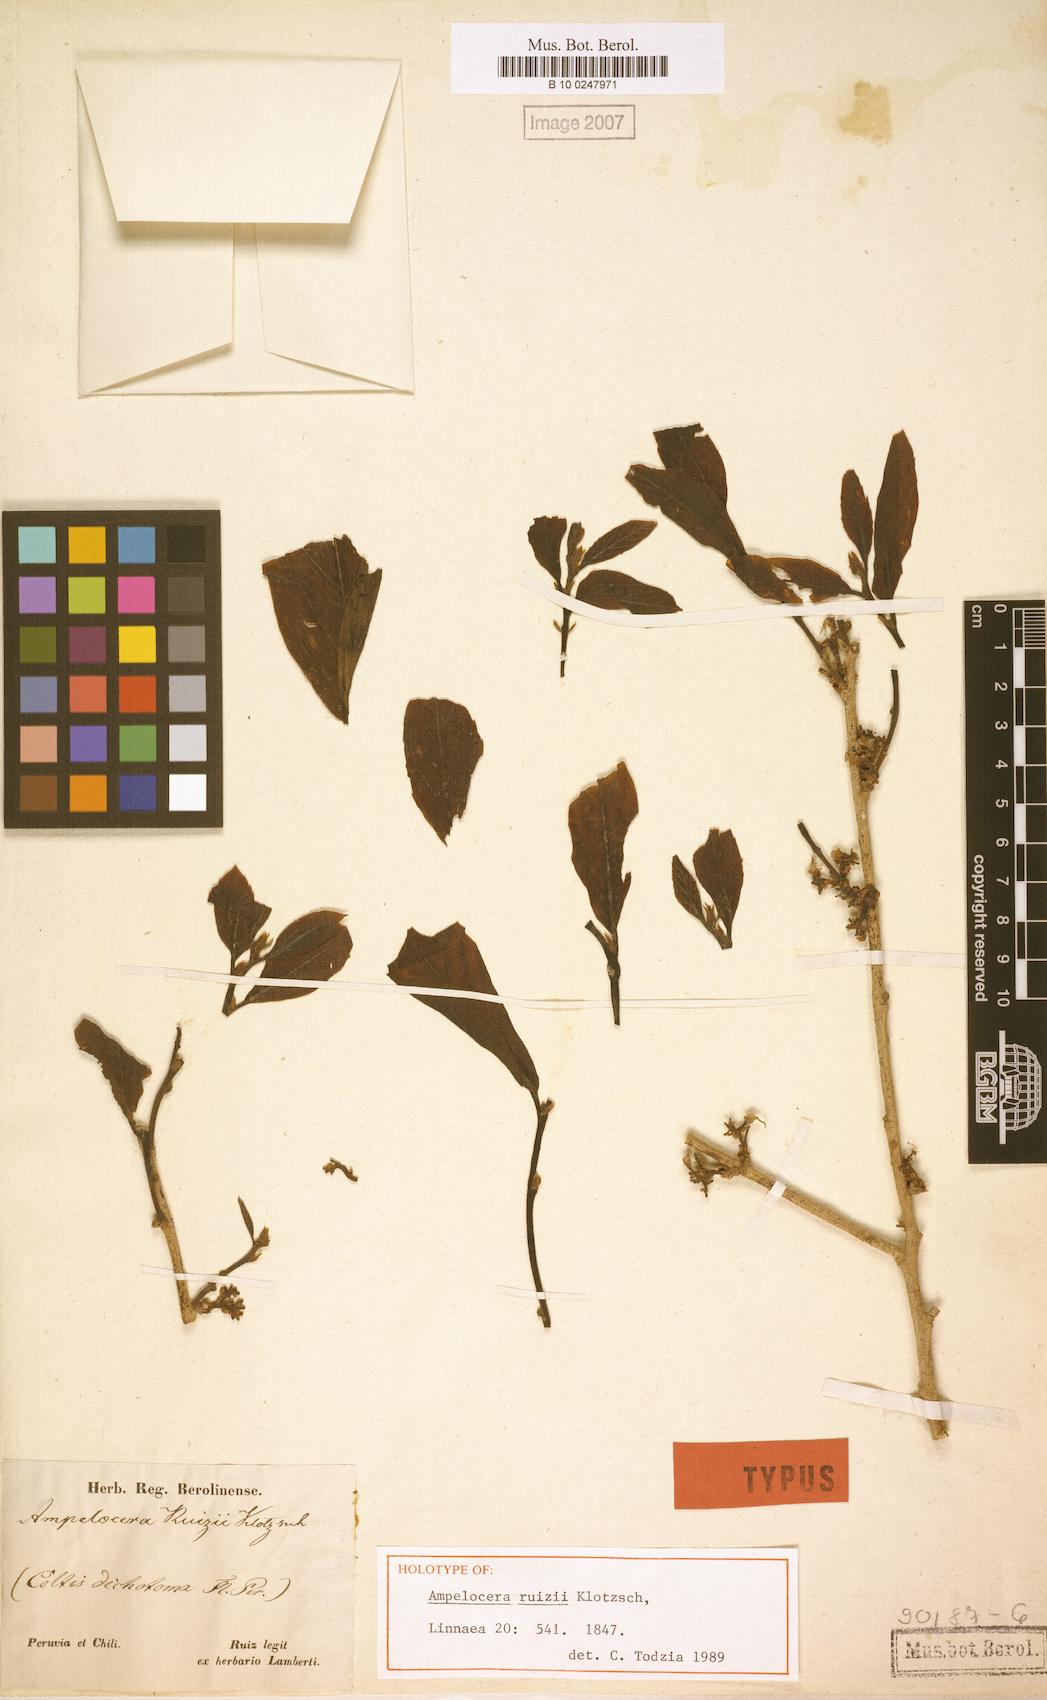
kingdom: Plantae
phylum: Tracheophyta
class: Magnoliopsida
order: Rosales
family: Cannabaceae
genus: Ampelocera
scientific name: Ampelocera ruizii
